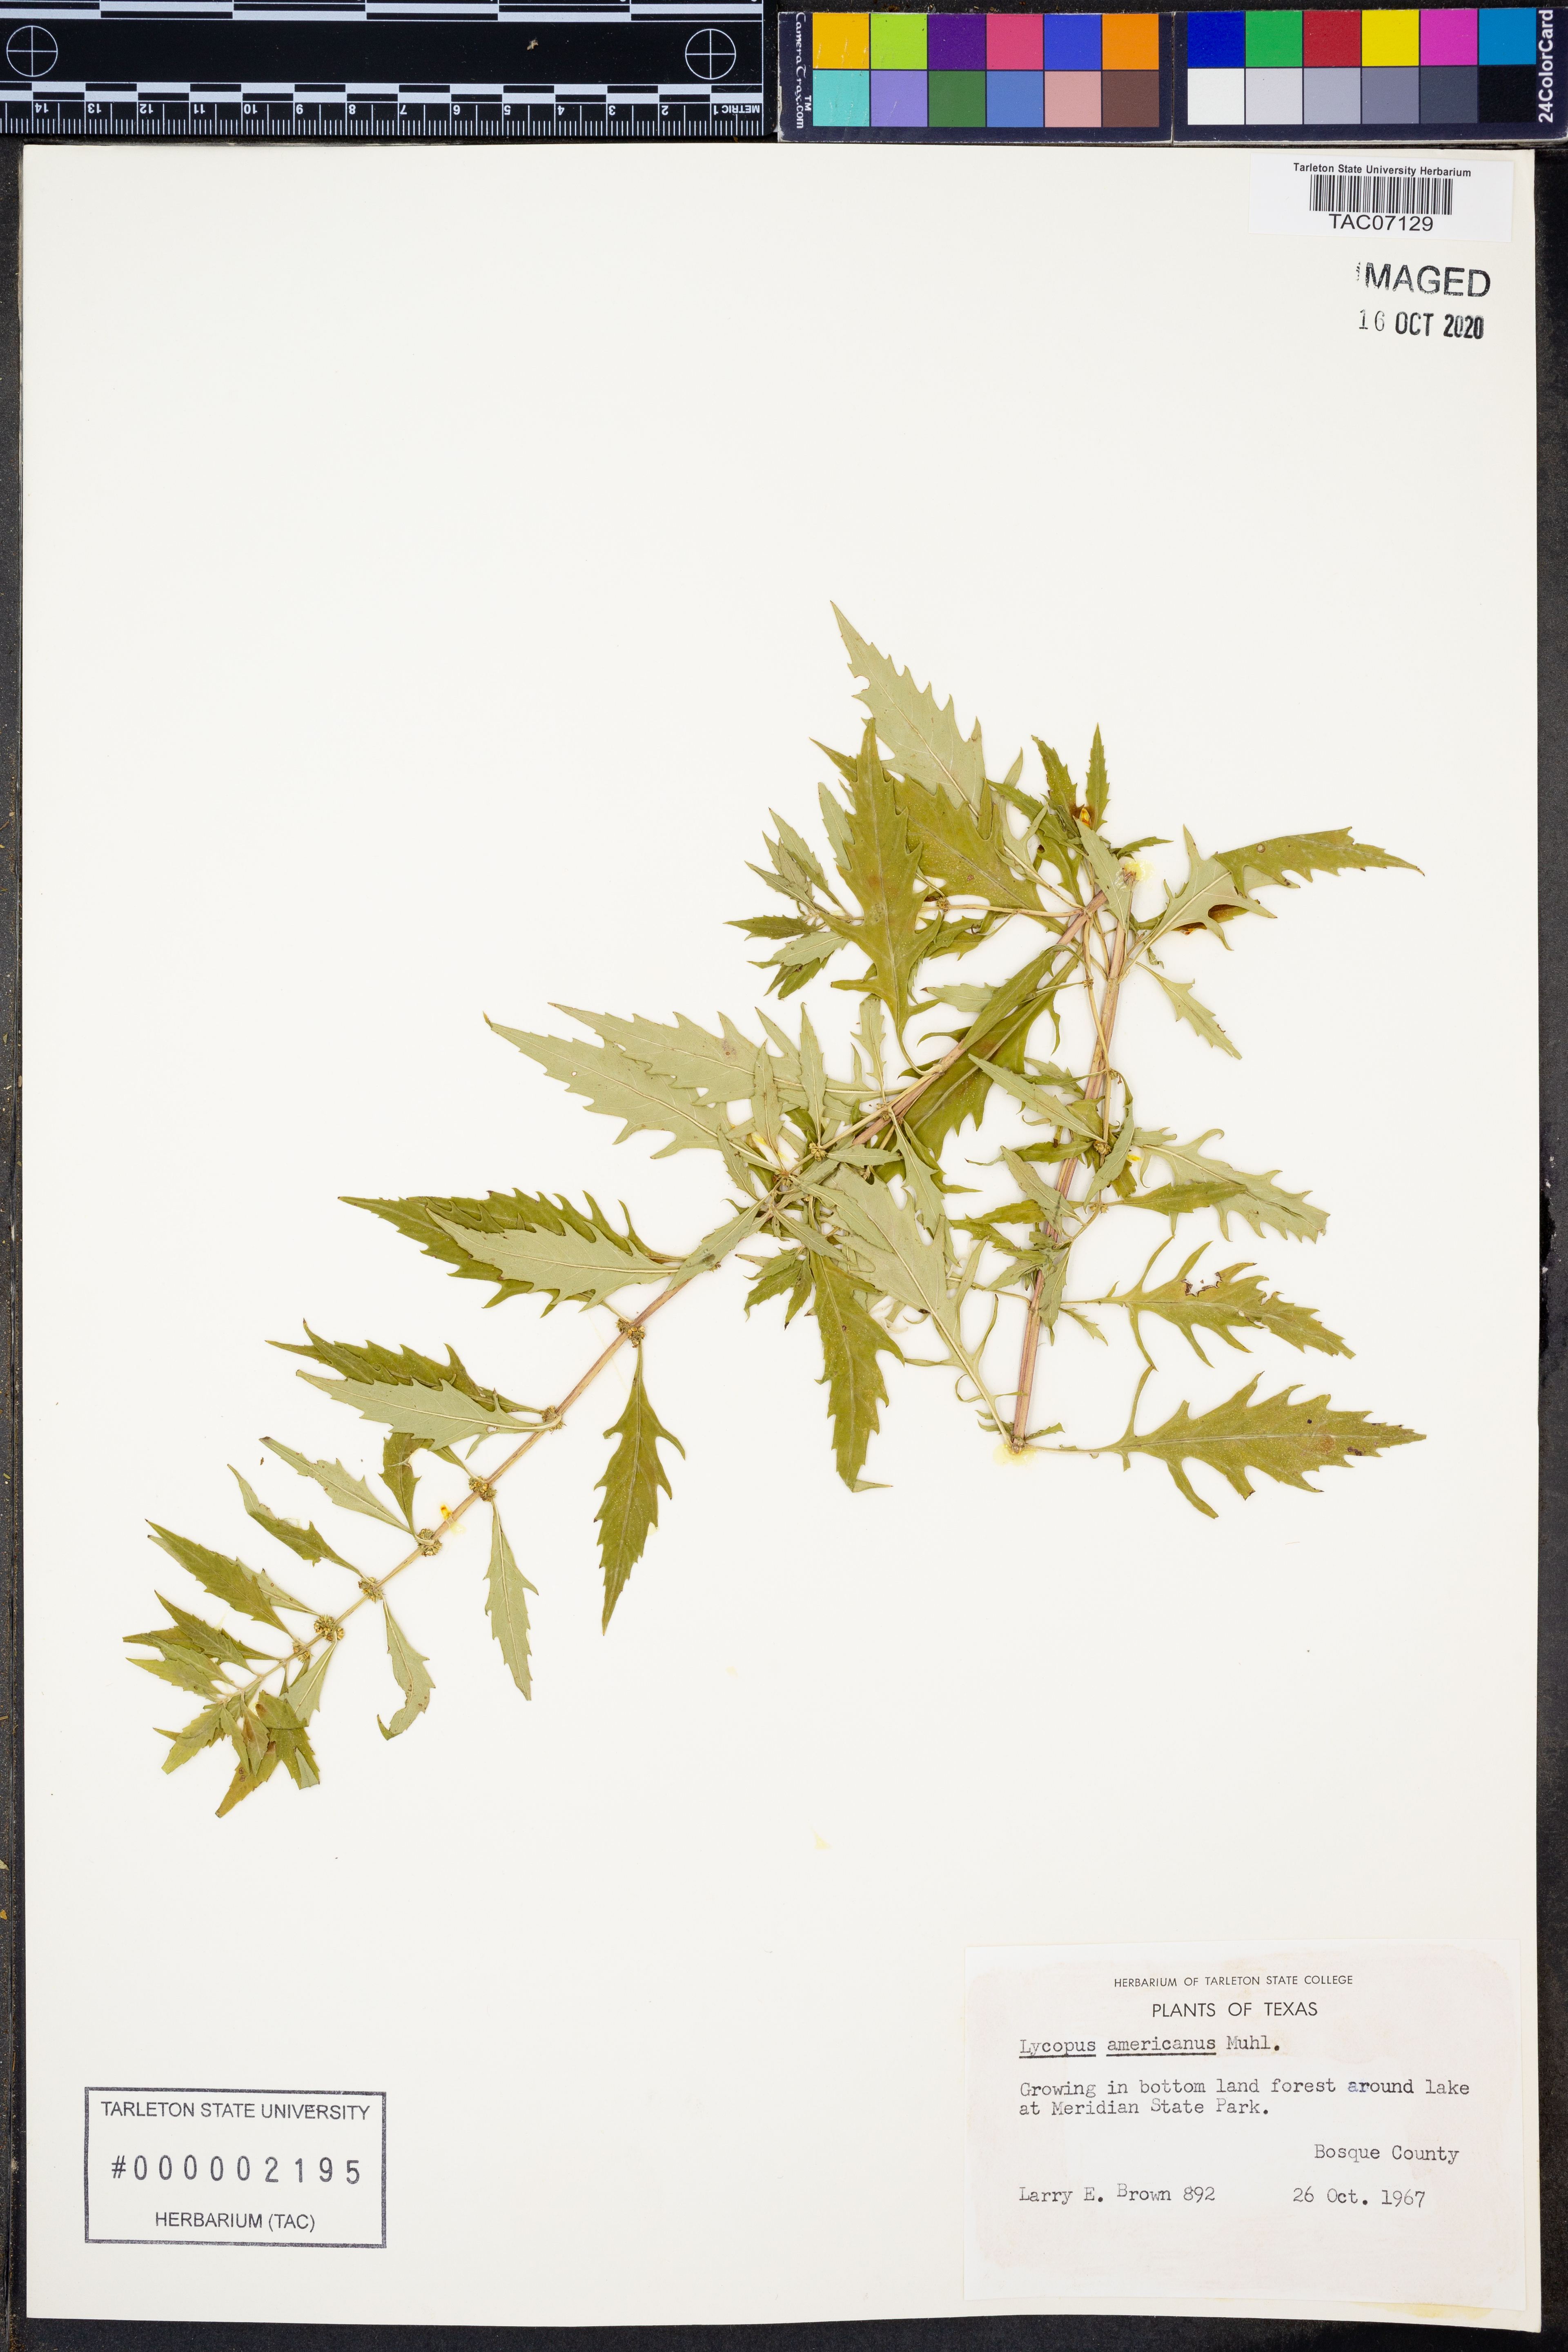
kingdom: Plantae
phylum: Tracheophyta
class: Magnoliopsida
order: Lamiales
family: Lamiaceae
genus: Lycopus
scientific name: Lycopus americanus
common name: American bugleweed
